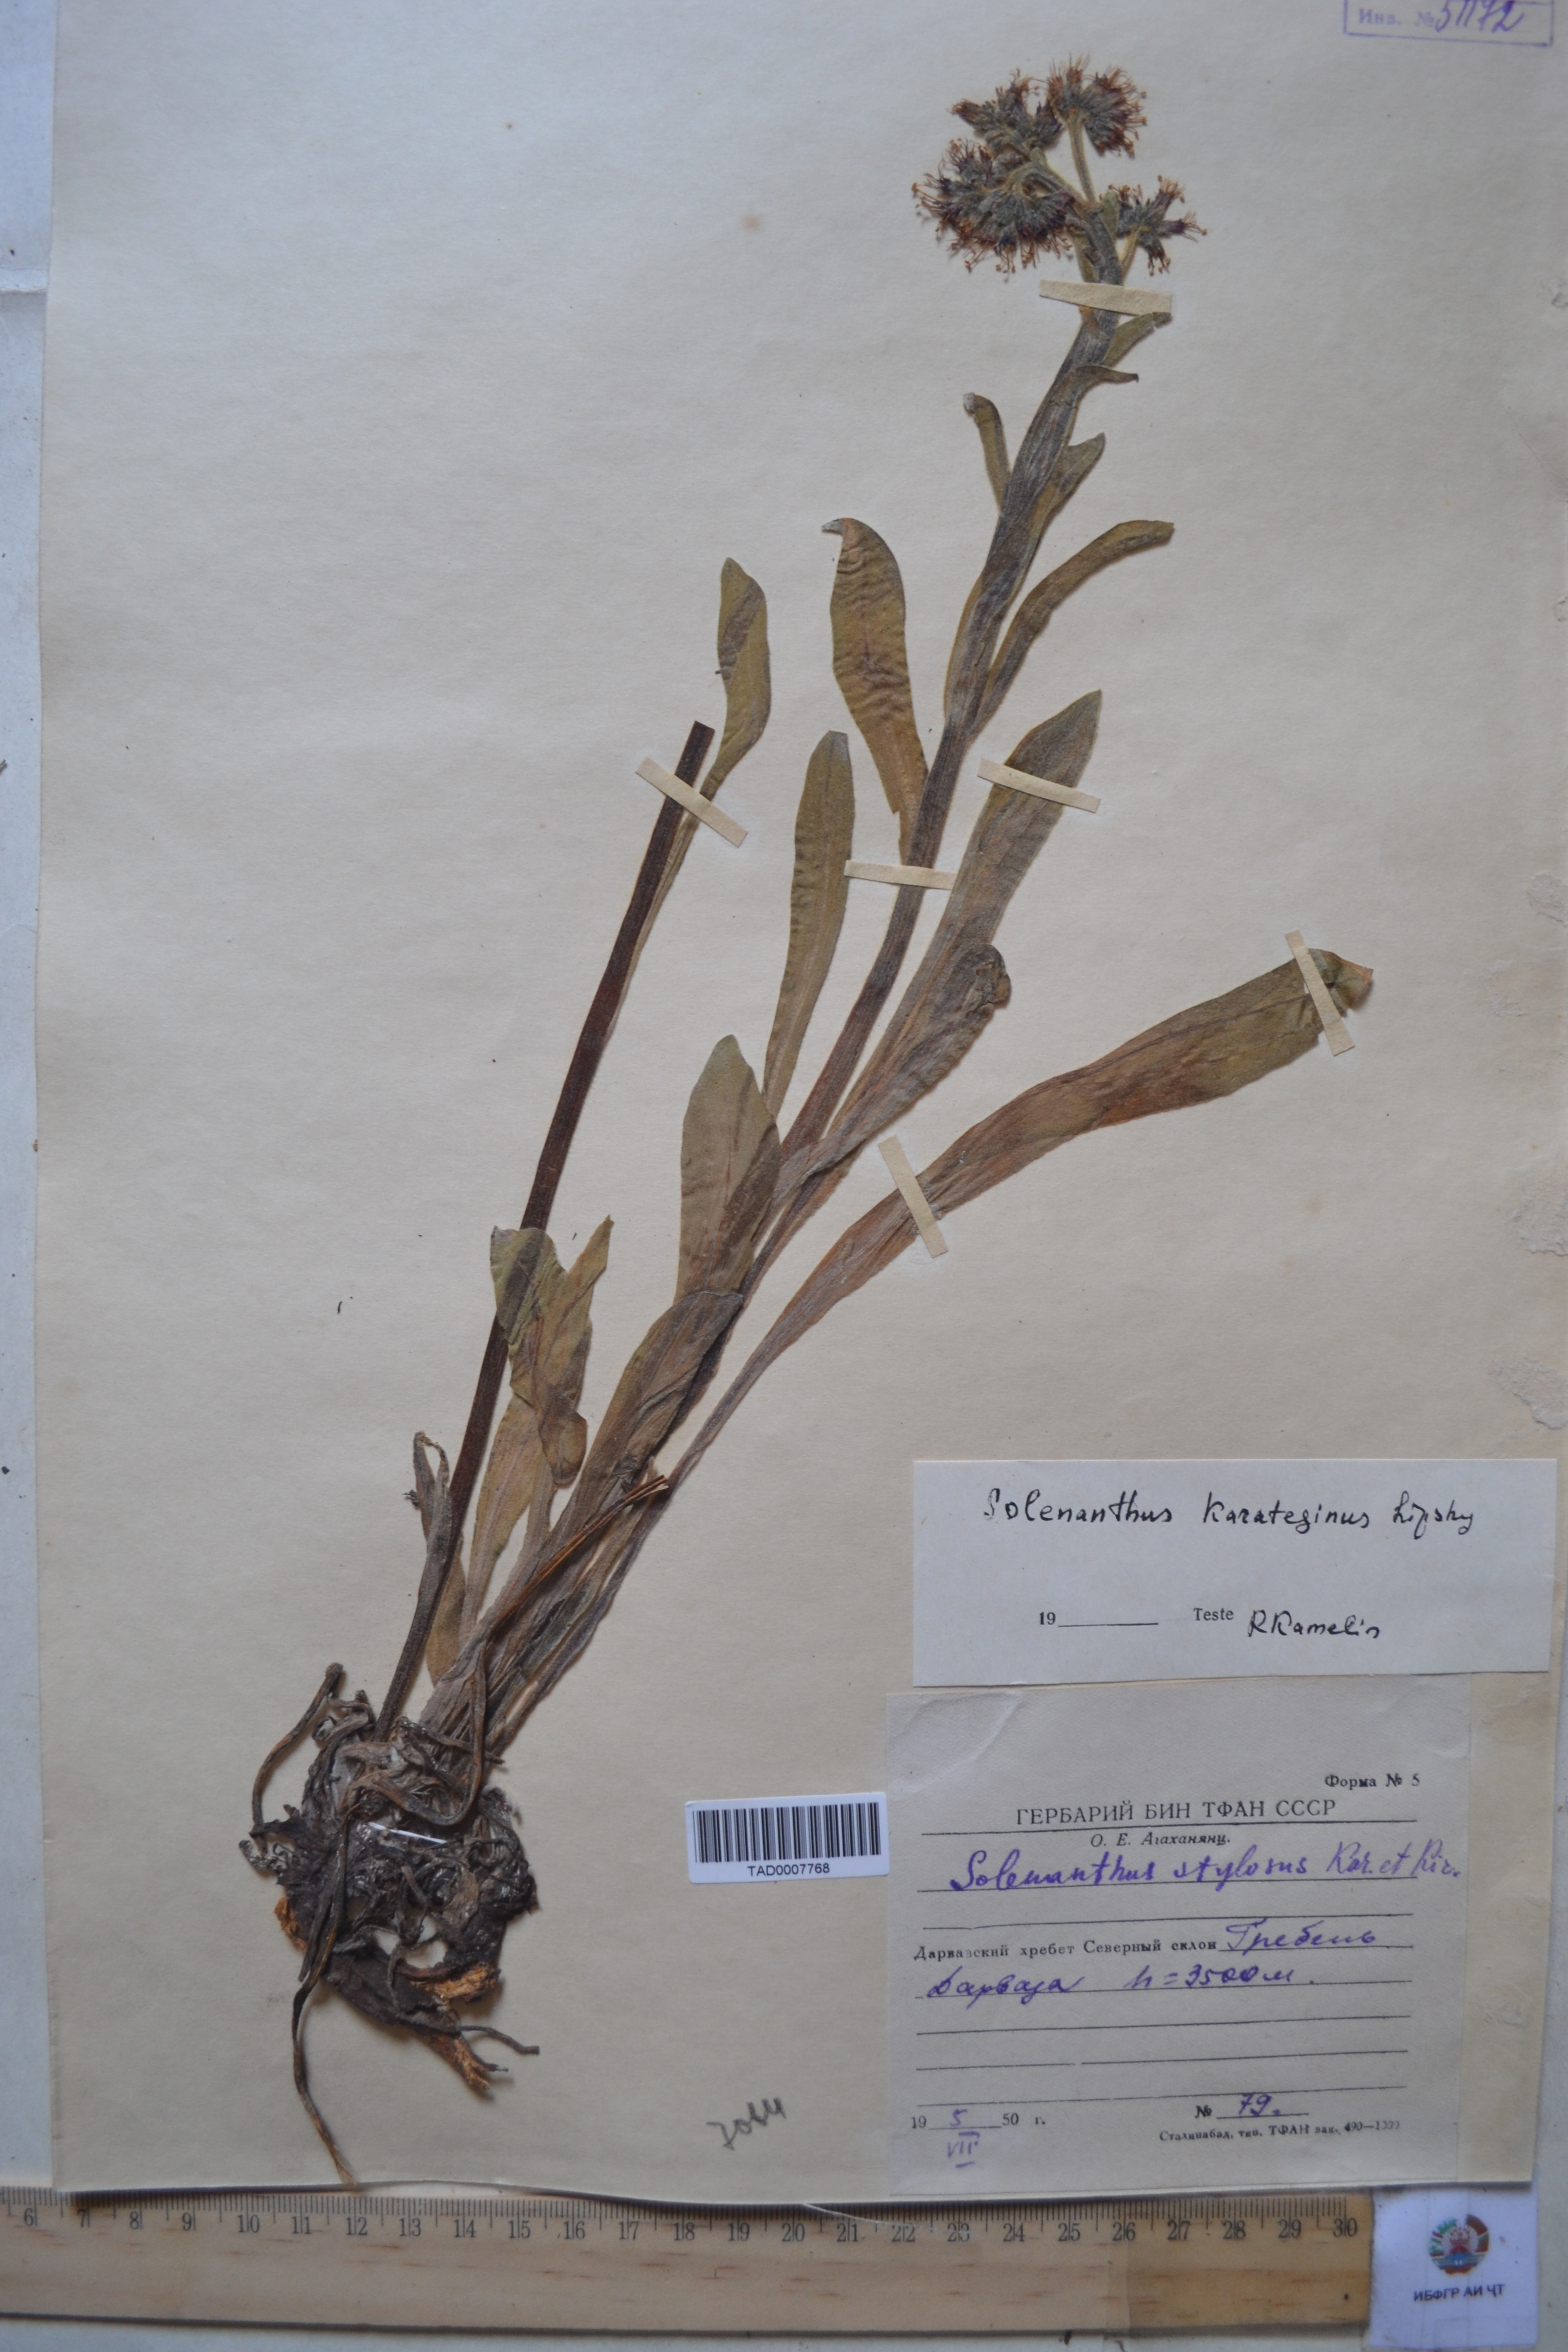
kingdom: Plantae
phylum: Tracheophyta
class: Magnoliopsida
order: Boraginales
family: Boraginaceae
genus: Solenanthus
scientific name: Solenanthus karateginus
